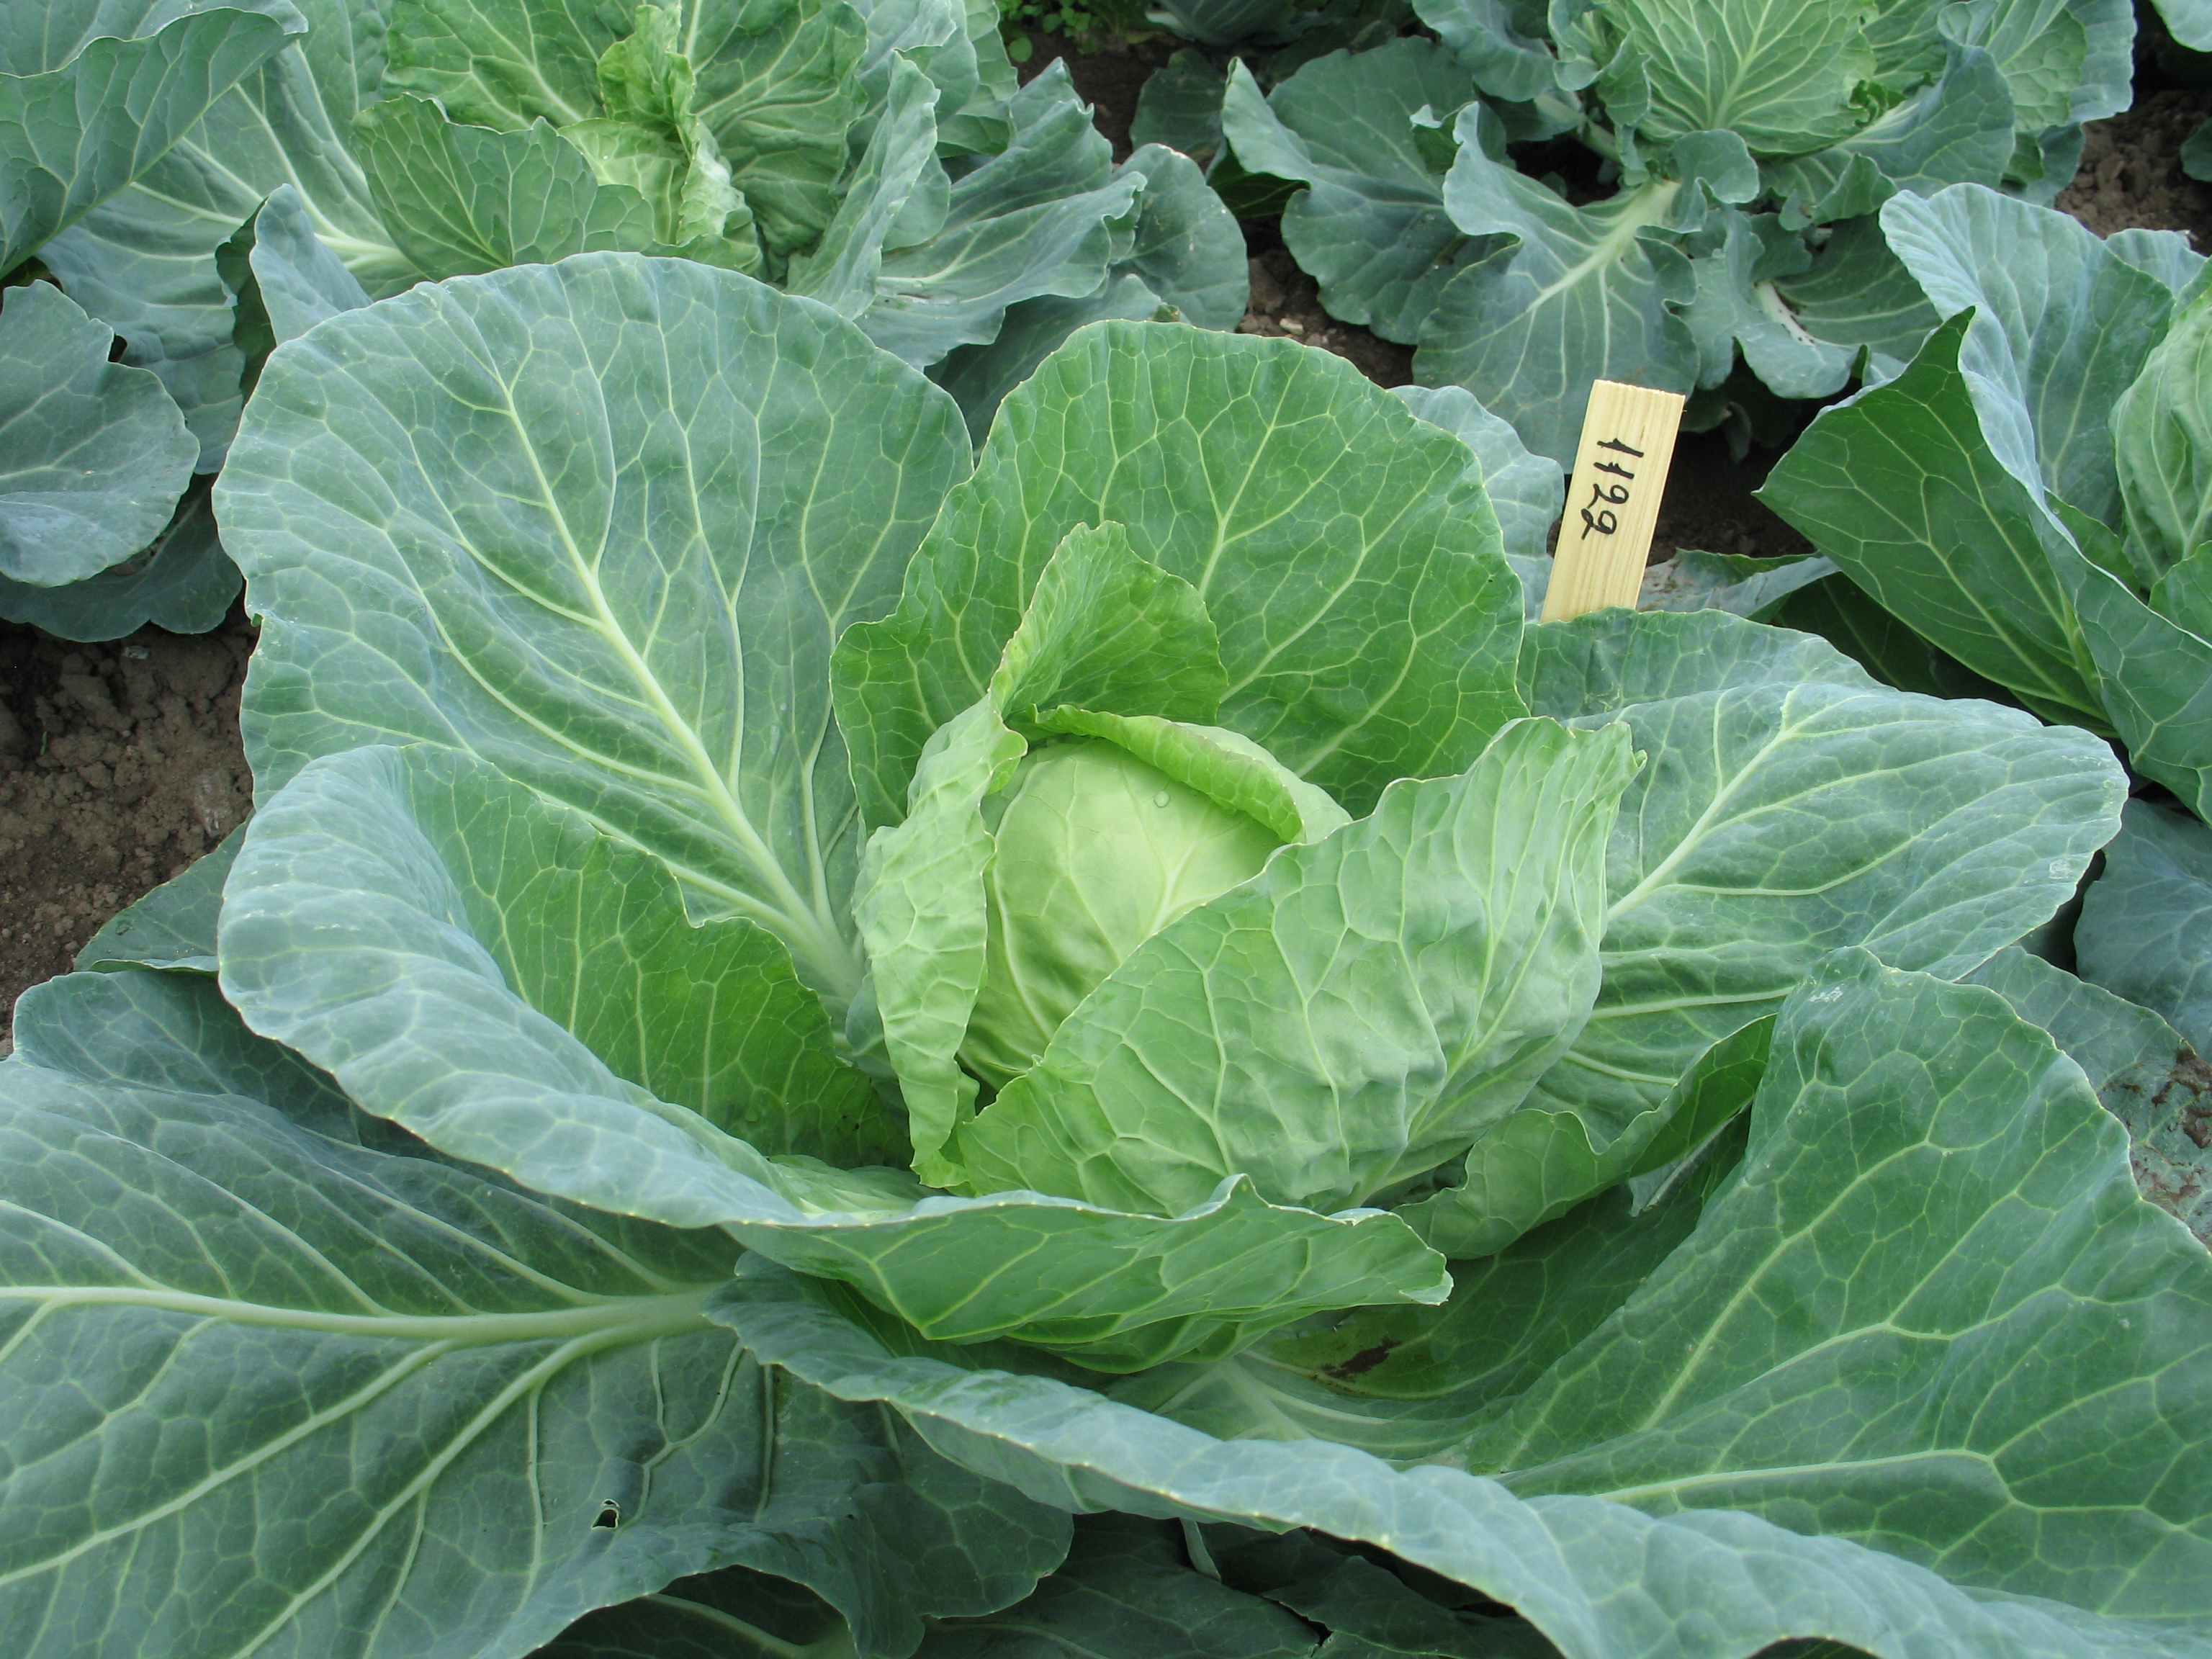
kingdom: Plantae
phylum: Tracheophyta
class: Magnoliopsida
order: Brassicales
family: Brassicaceae
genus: Brassica
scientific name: Brassica oleracea
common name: Cabbage
